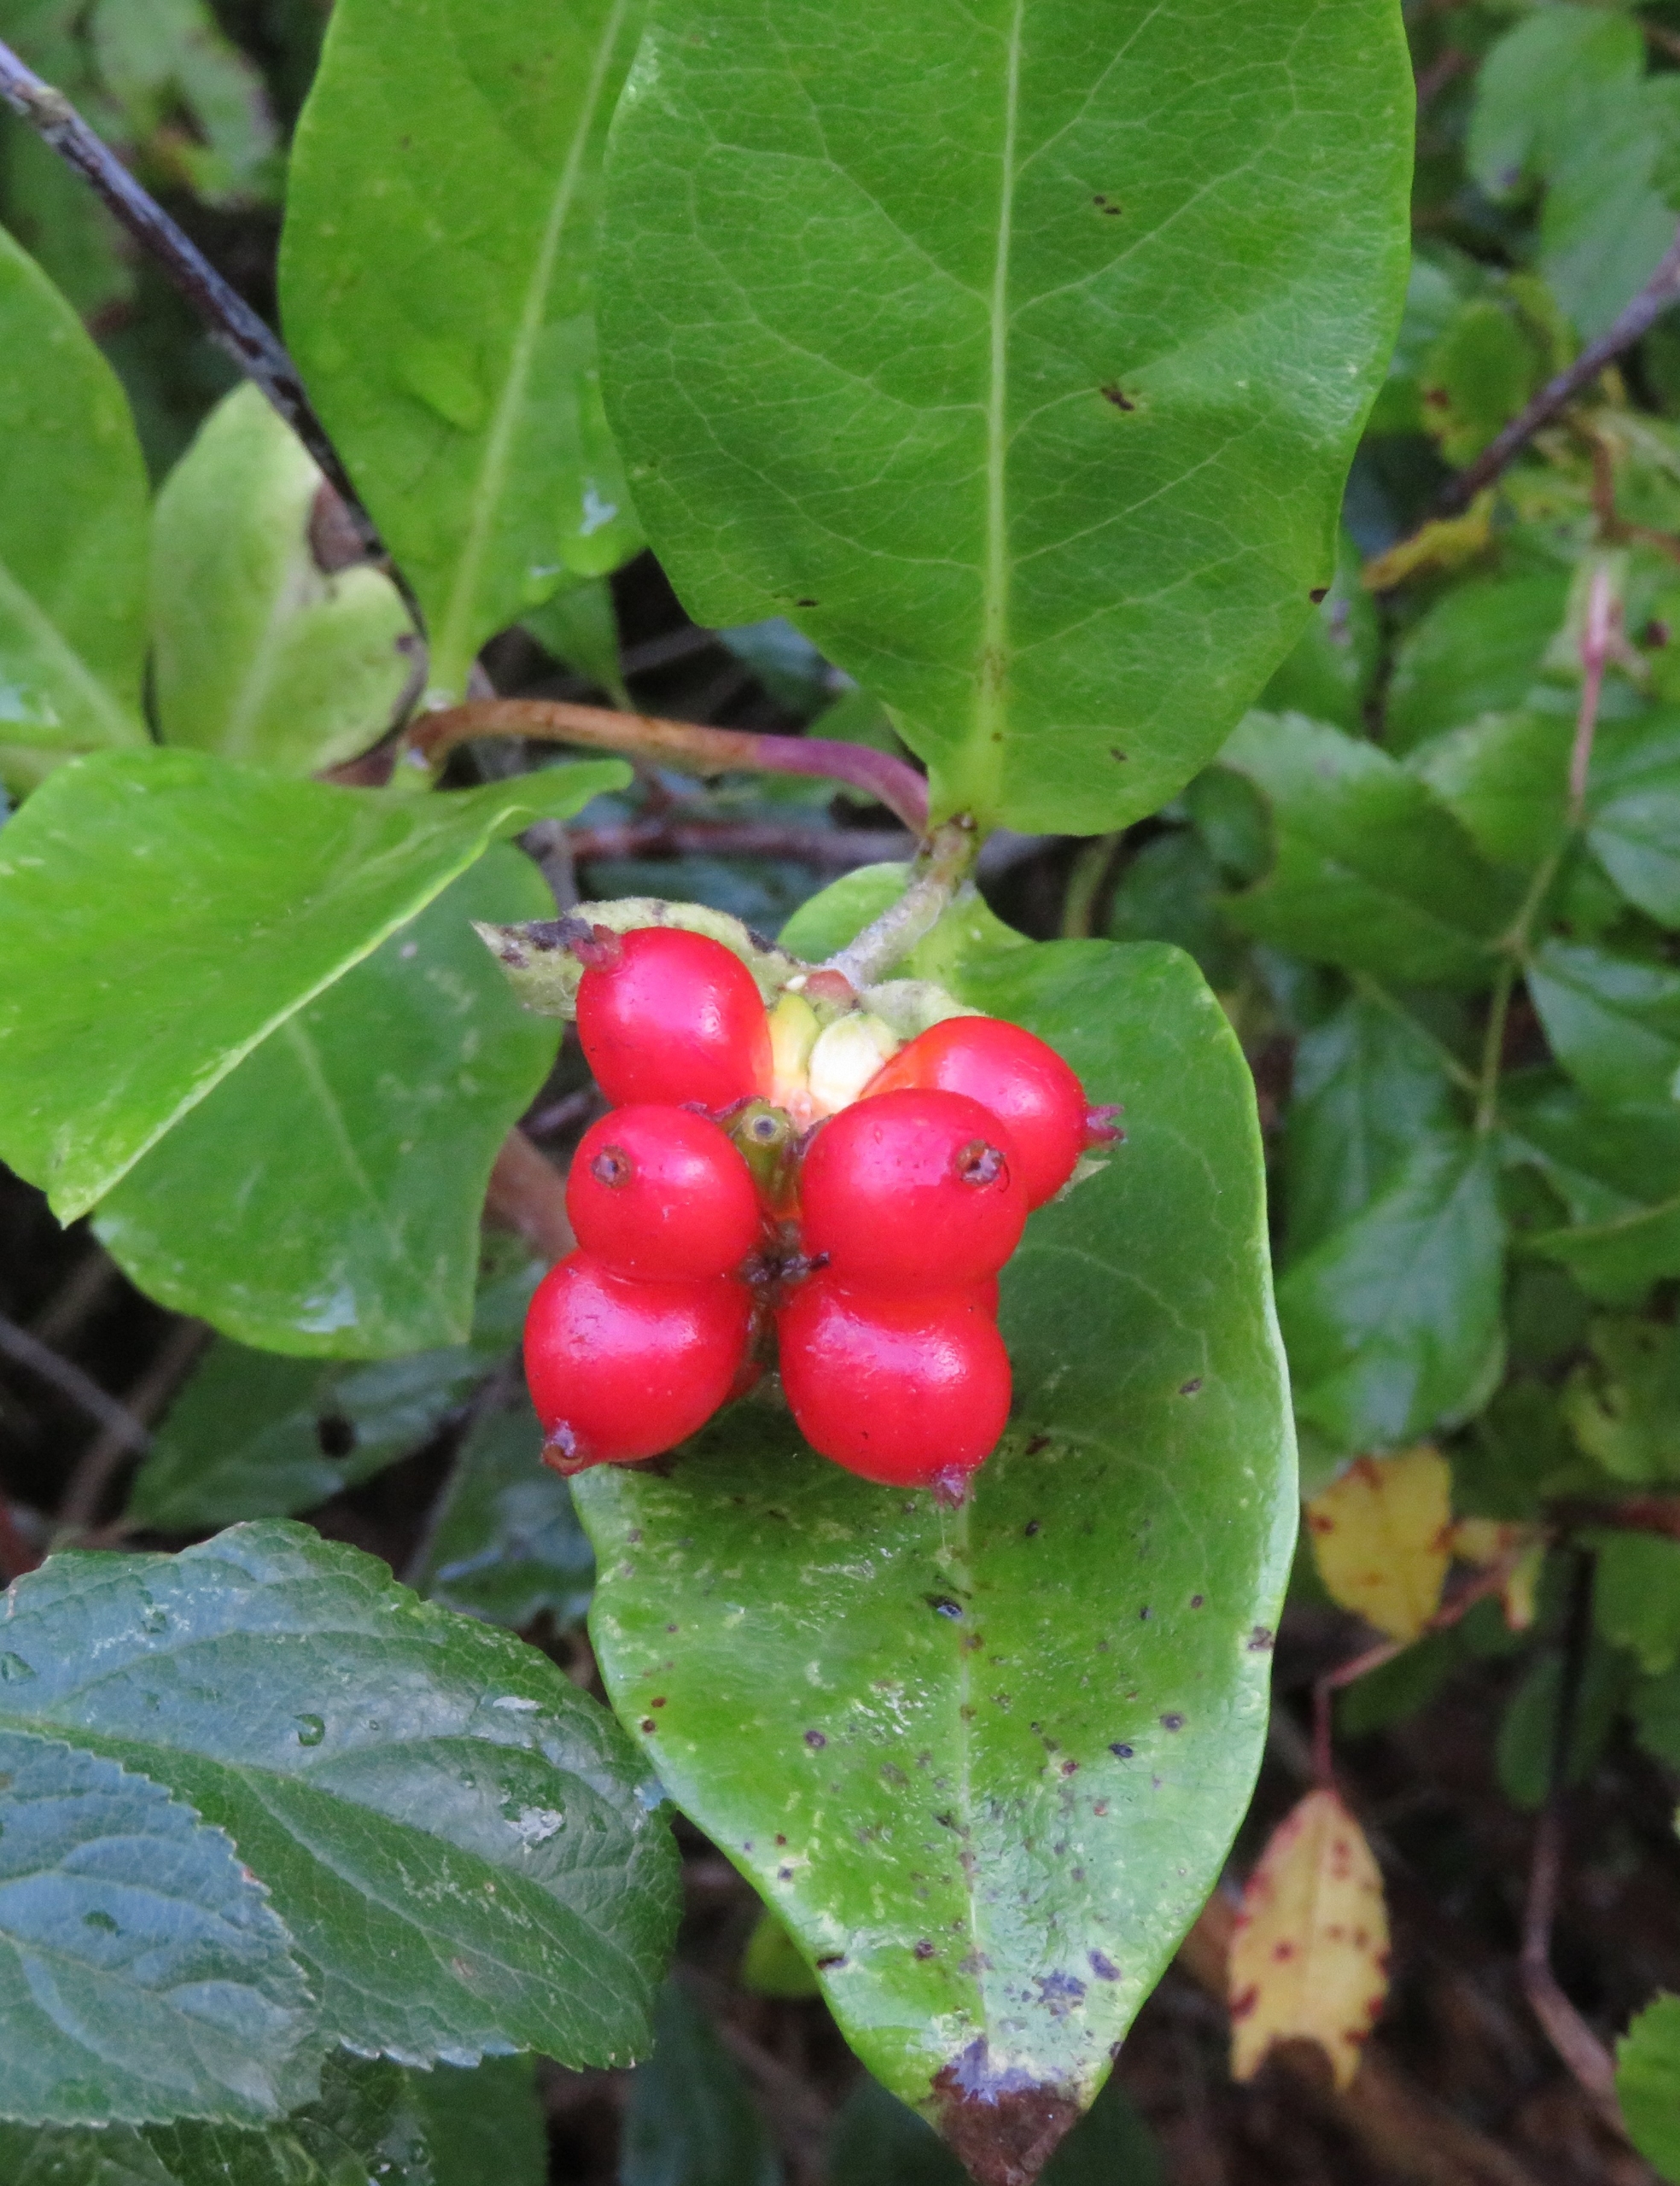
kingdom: Plantae
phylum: Tracheophyta
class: Magnoliopsida
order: Dipsacales
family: Caprifoliaceae
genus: Lonicera
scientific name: Lonicera periclymenum
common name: Almindelig gedeblad
